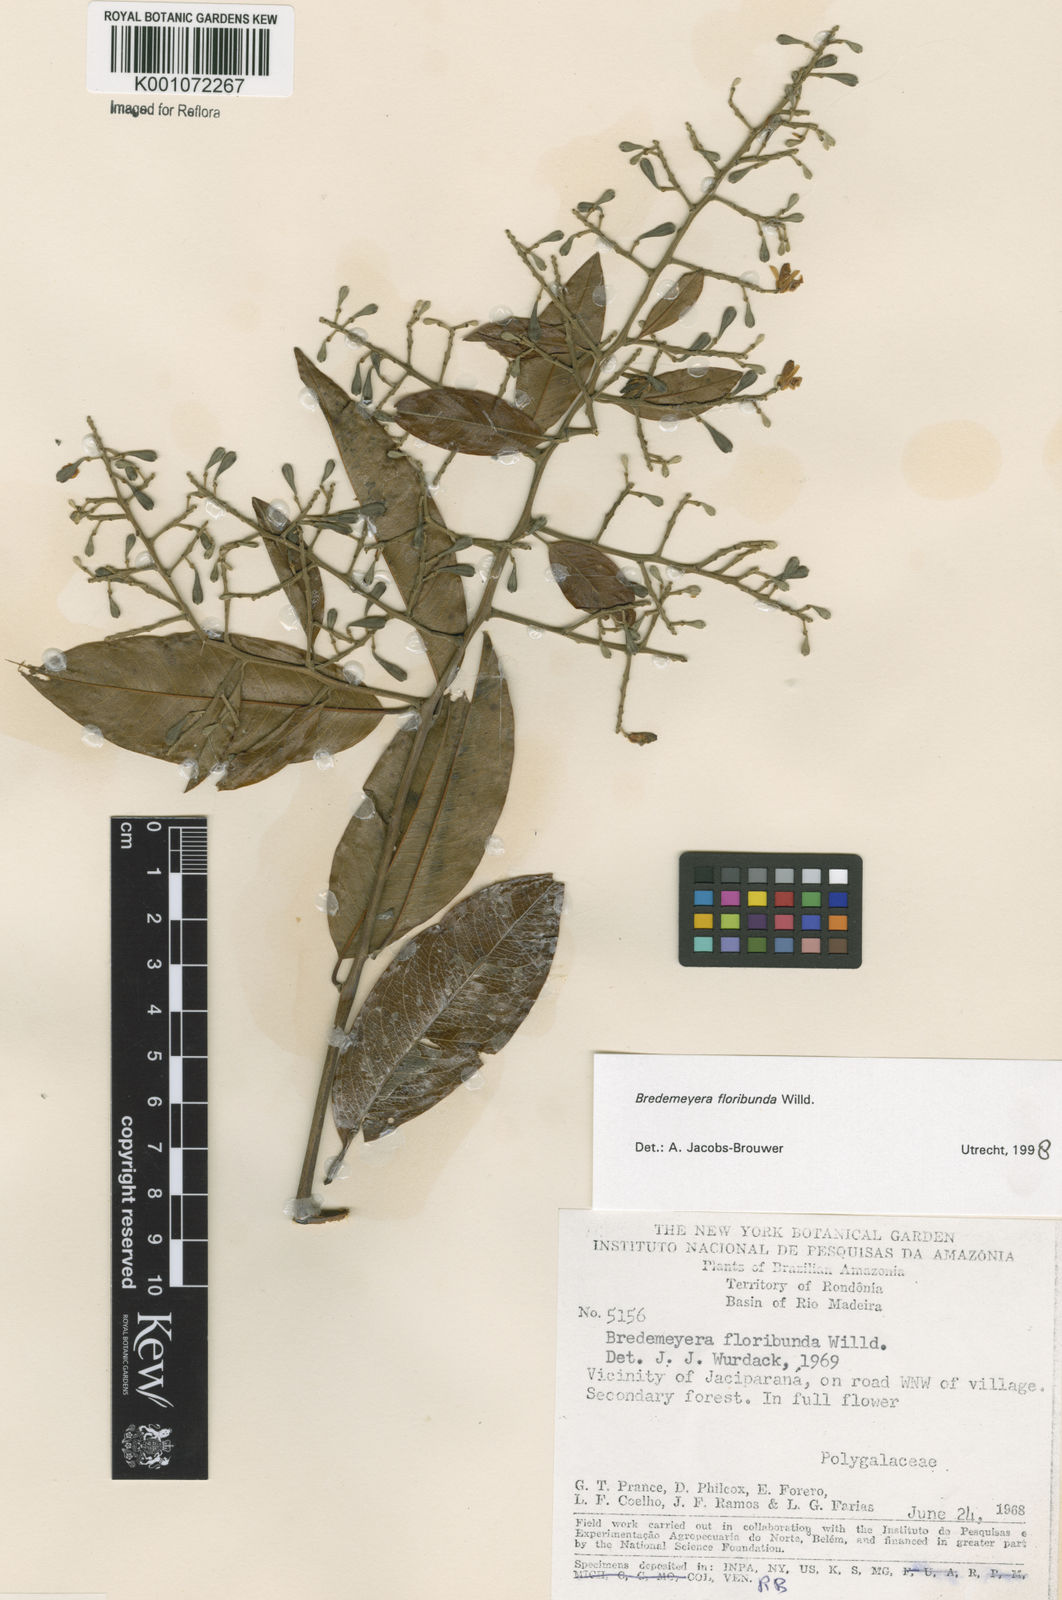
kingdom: Plantae
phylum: Tracheophyta
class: Magnoliopsida
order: Fabales
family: Polygalaceae
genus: Bredemeyera
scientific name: Bredemeyera floribunda
